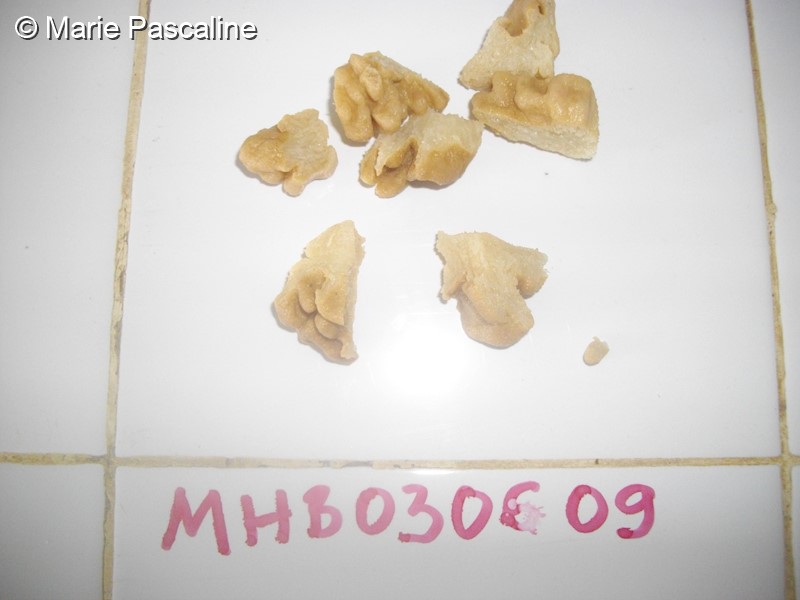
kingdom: Animalia
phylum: Cnidaria
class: Anthozoa
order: Malacalcyonacea
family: Sarcophytidae
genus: Sclerophytum
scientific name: Sclerophytum gravis
